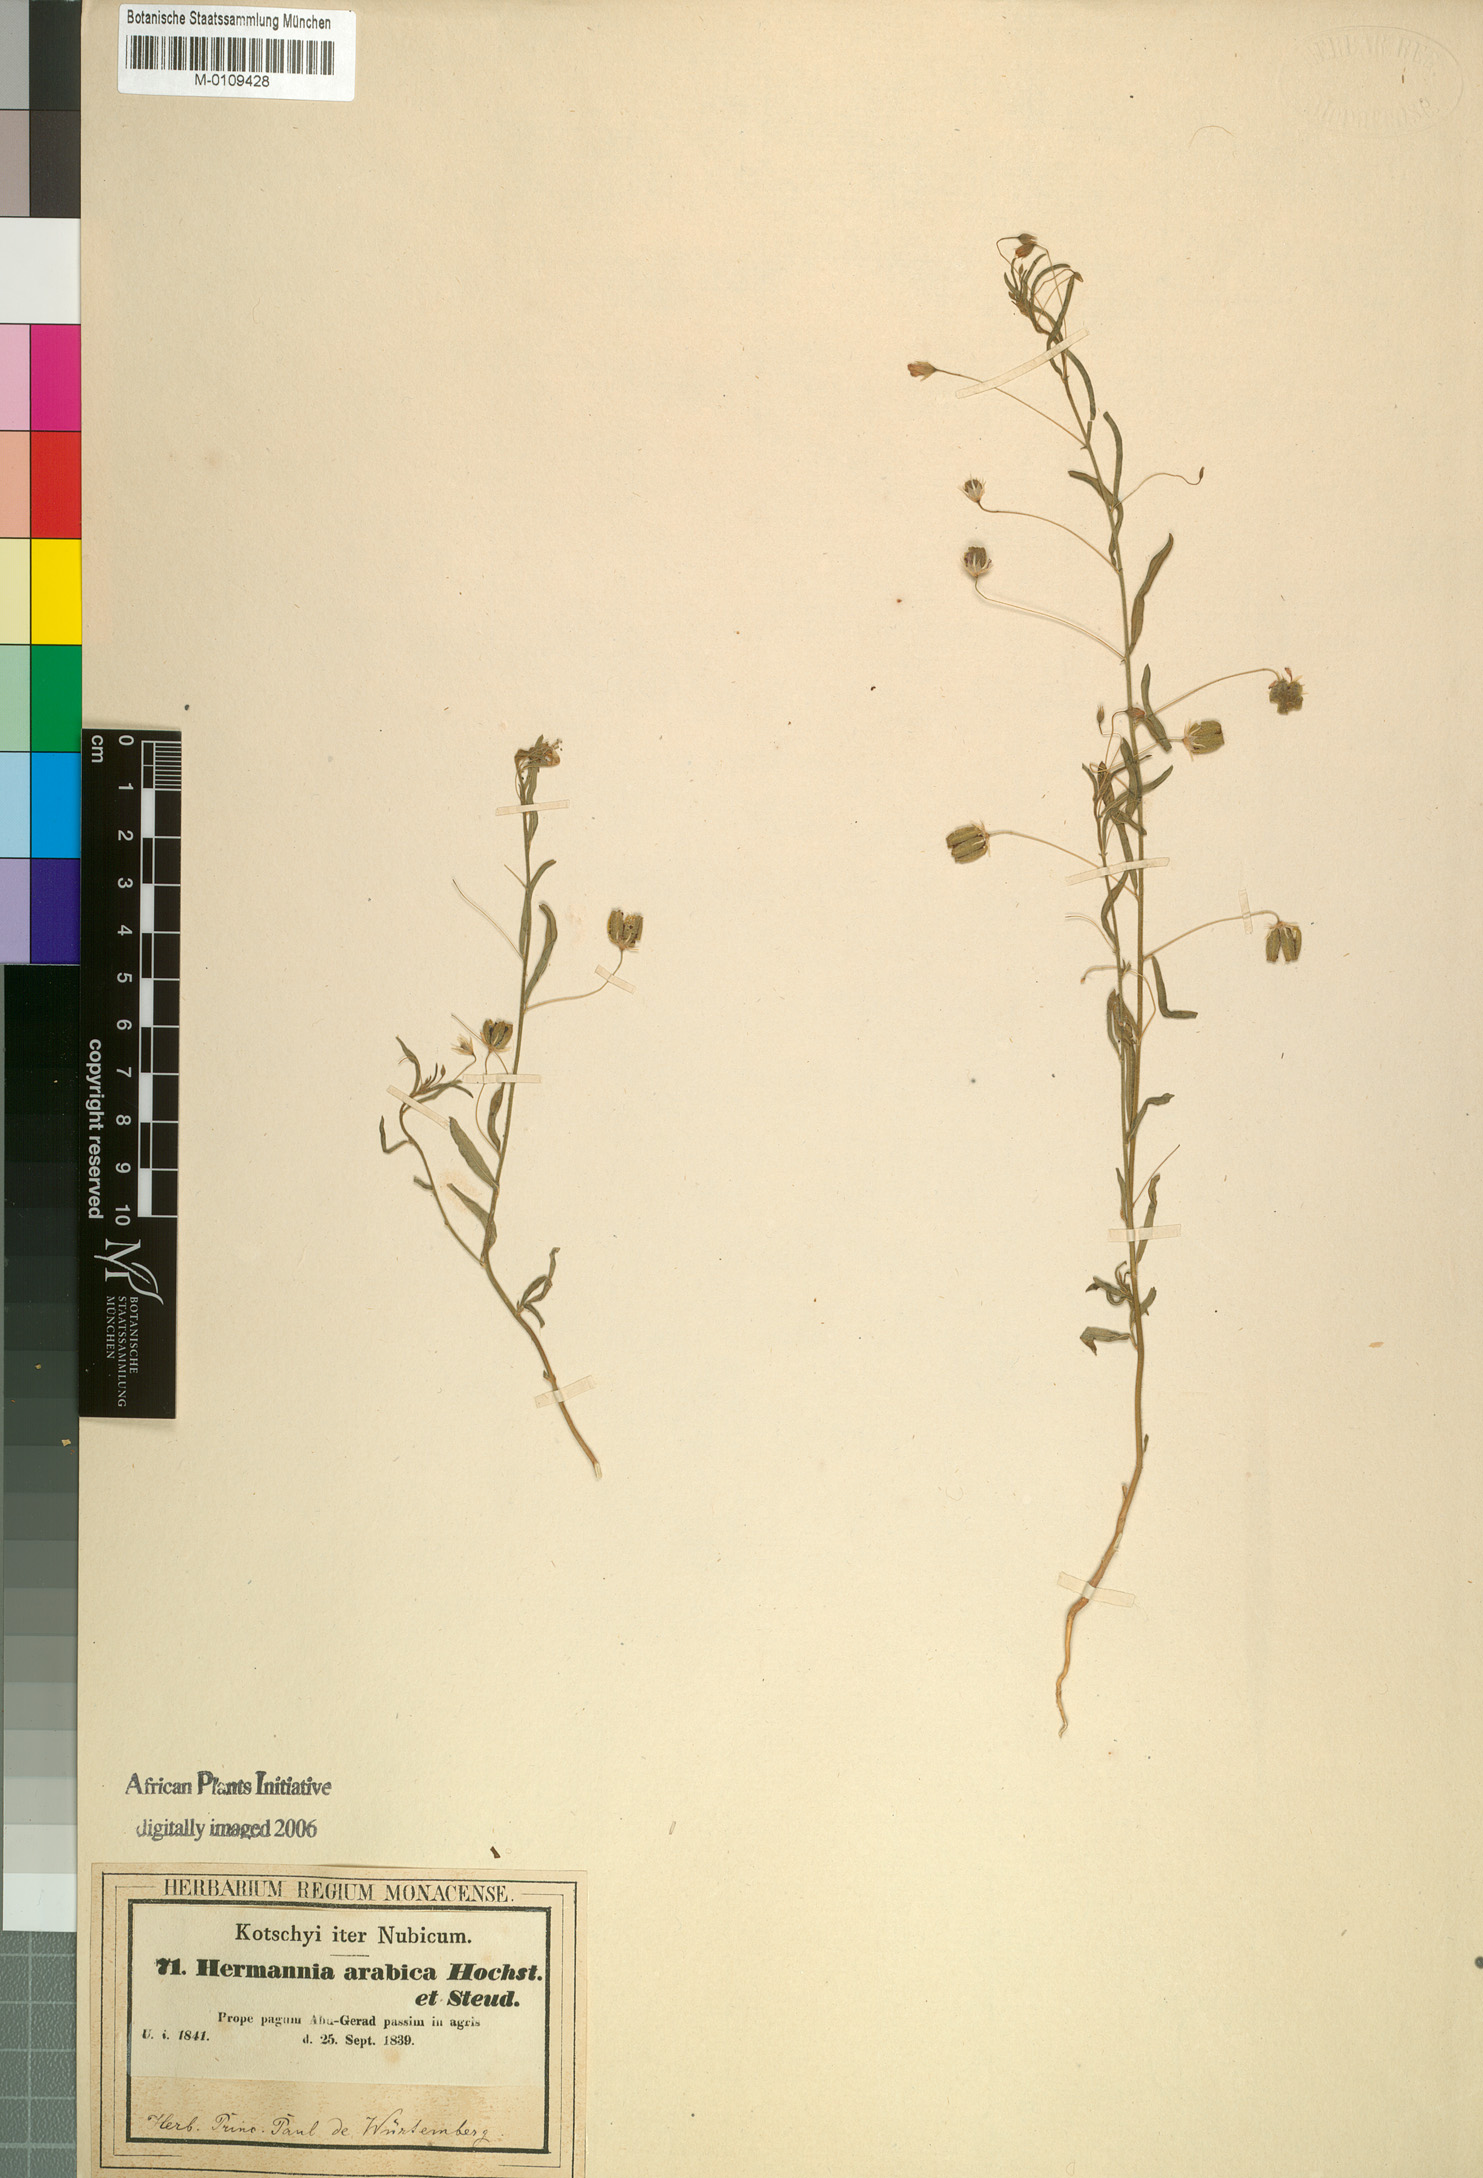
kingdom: Plantae
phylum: Tracheophyta
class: Magnoliopsida
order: Malvales
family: Malvaceae
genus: Hermannia
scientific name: Hermannia modesta
